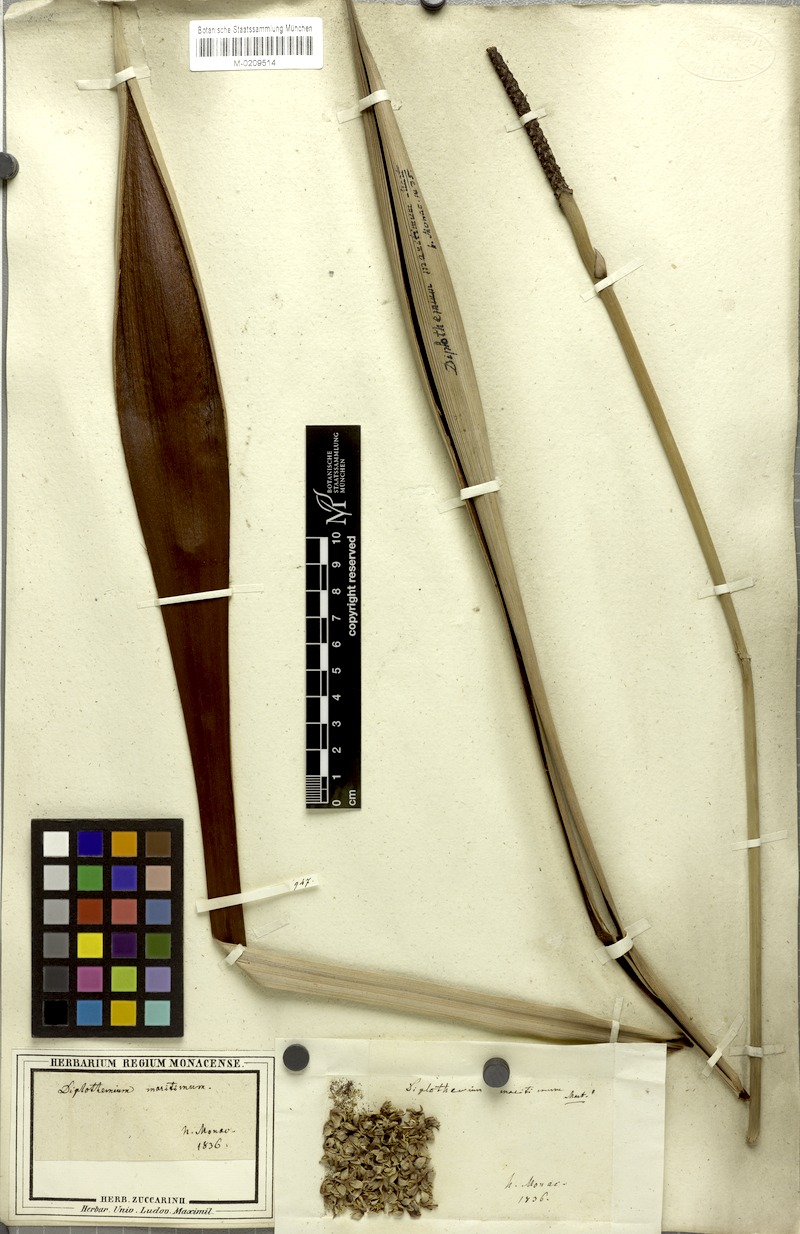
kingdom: Plantae
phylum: Tracheophyta
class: Liliopsida
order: Arecales
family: Arecaceae
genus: Allagoptera
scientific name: Allagoptera arenaria
